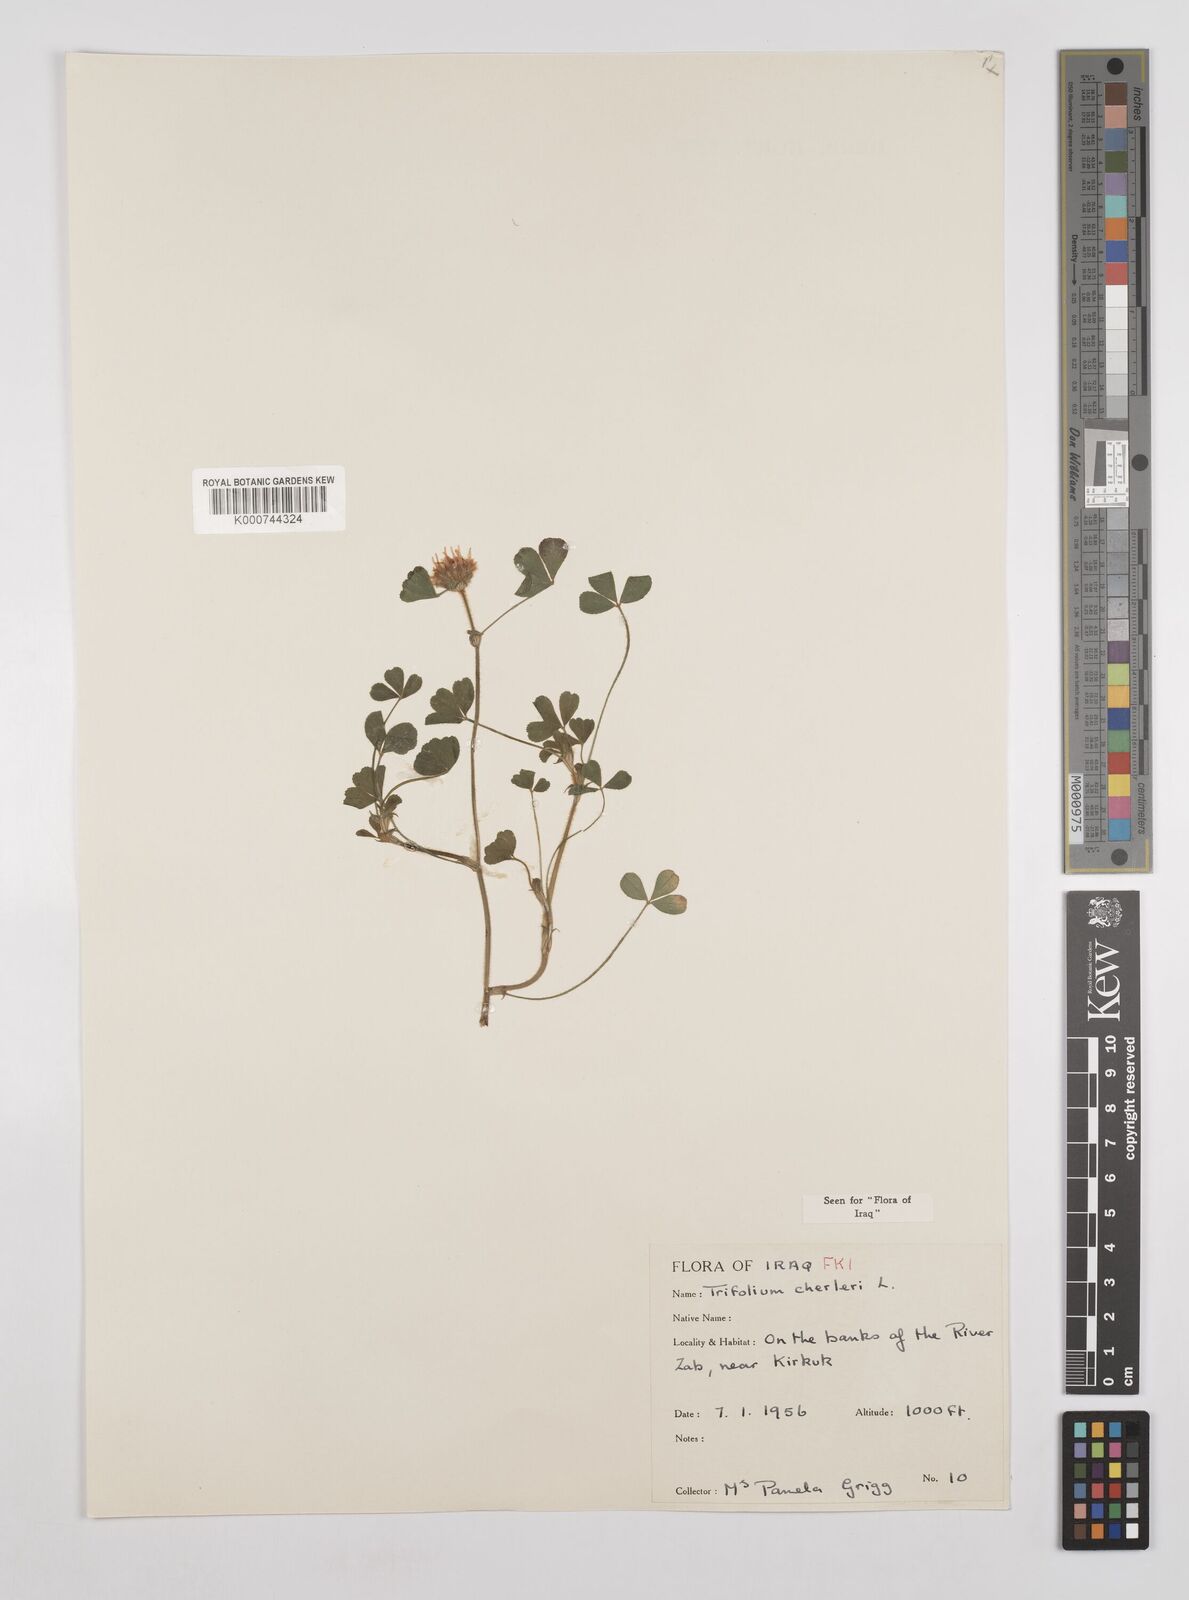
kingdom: Plantae
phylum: Tracheophyta
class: Magnoliopsida
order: Fabales
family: Fabaceae
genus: Trifolium
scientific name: Trifolium cherleri
